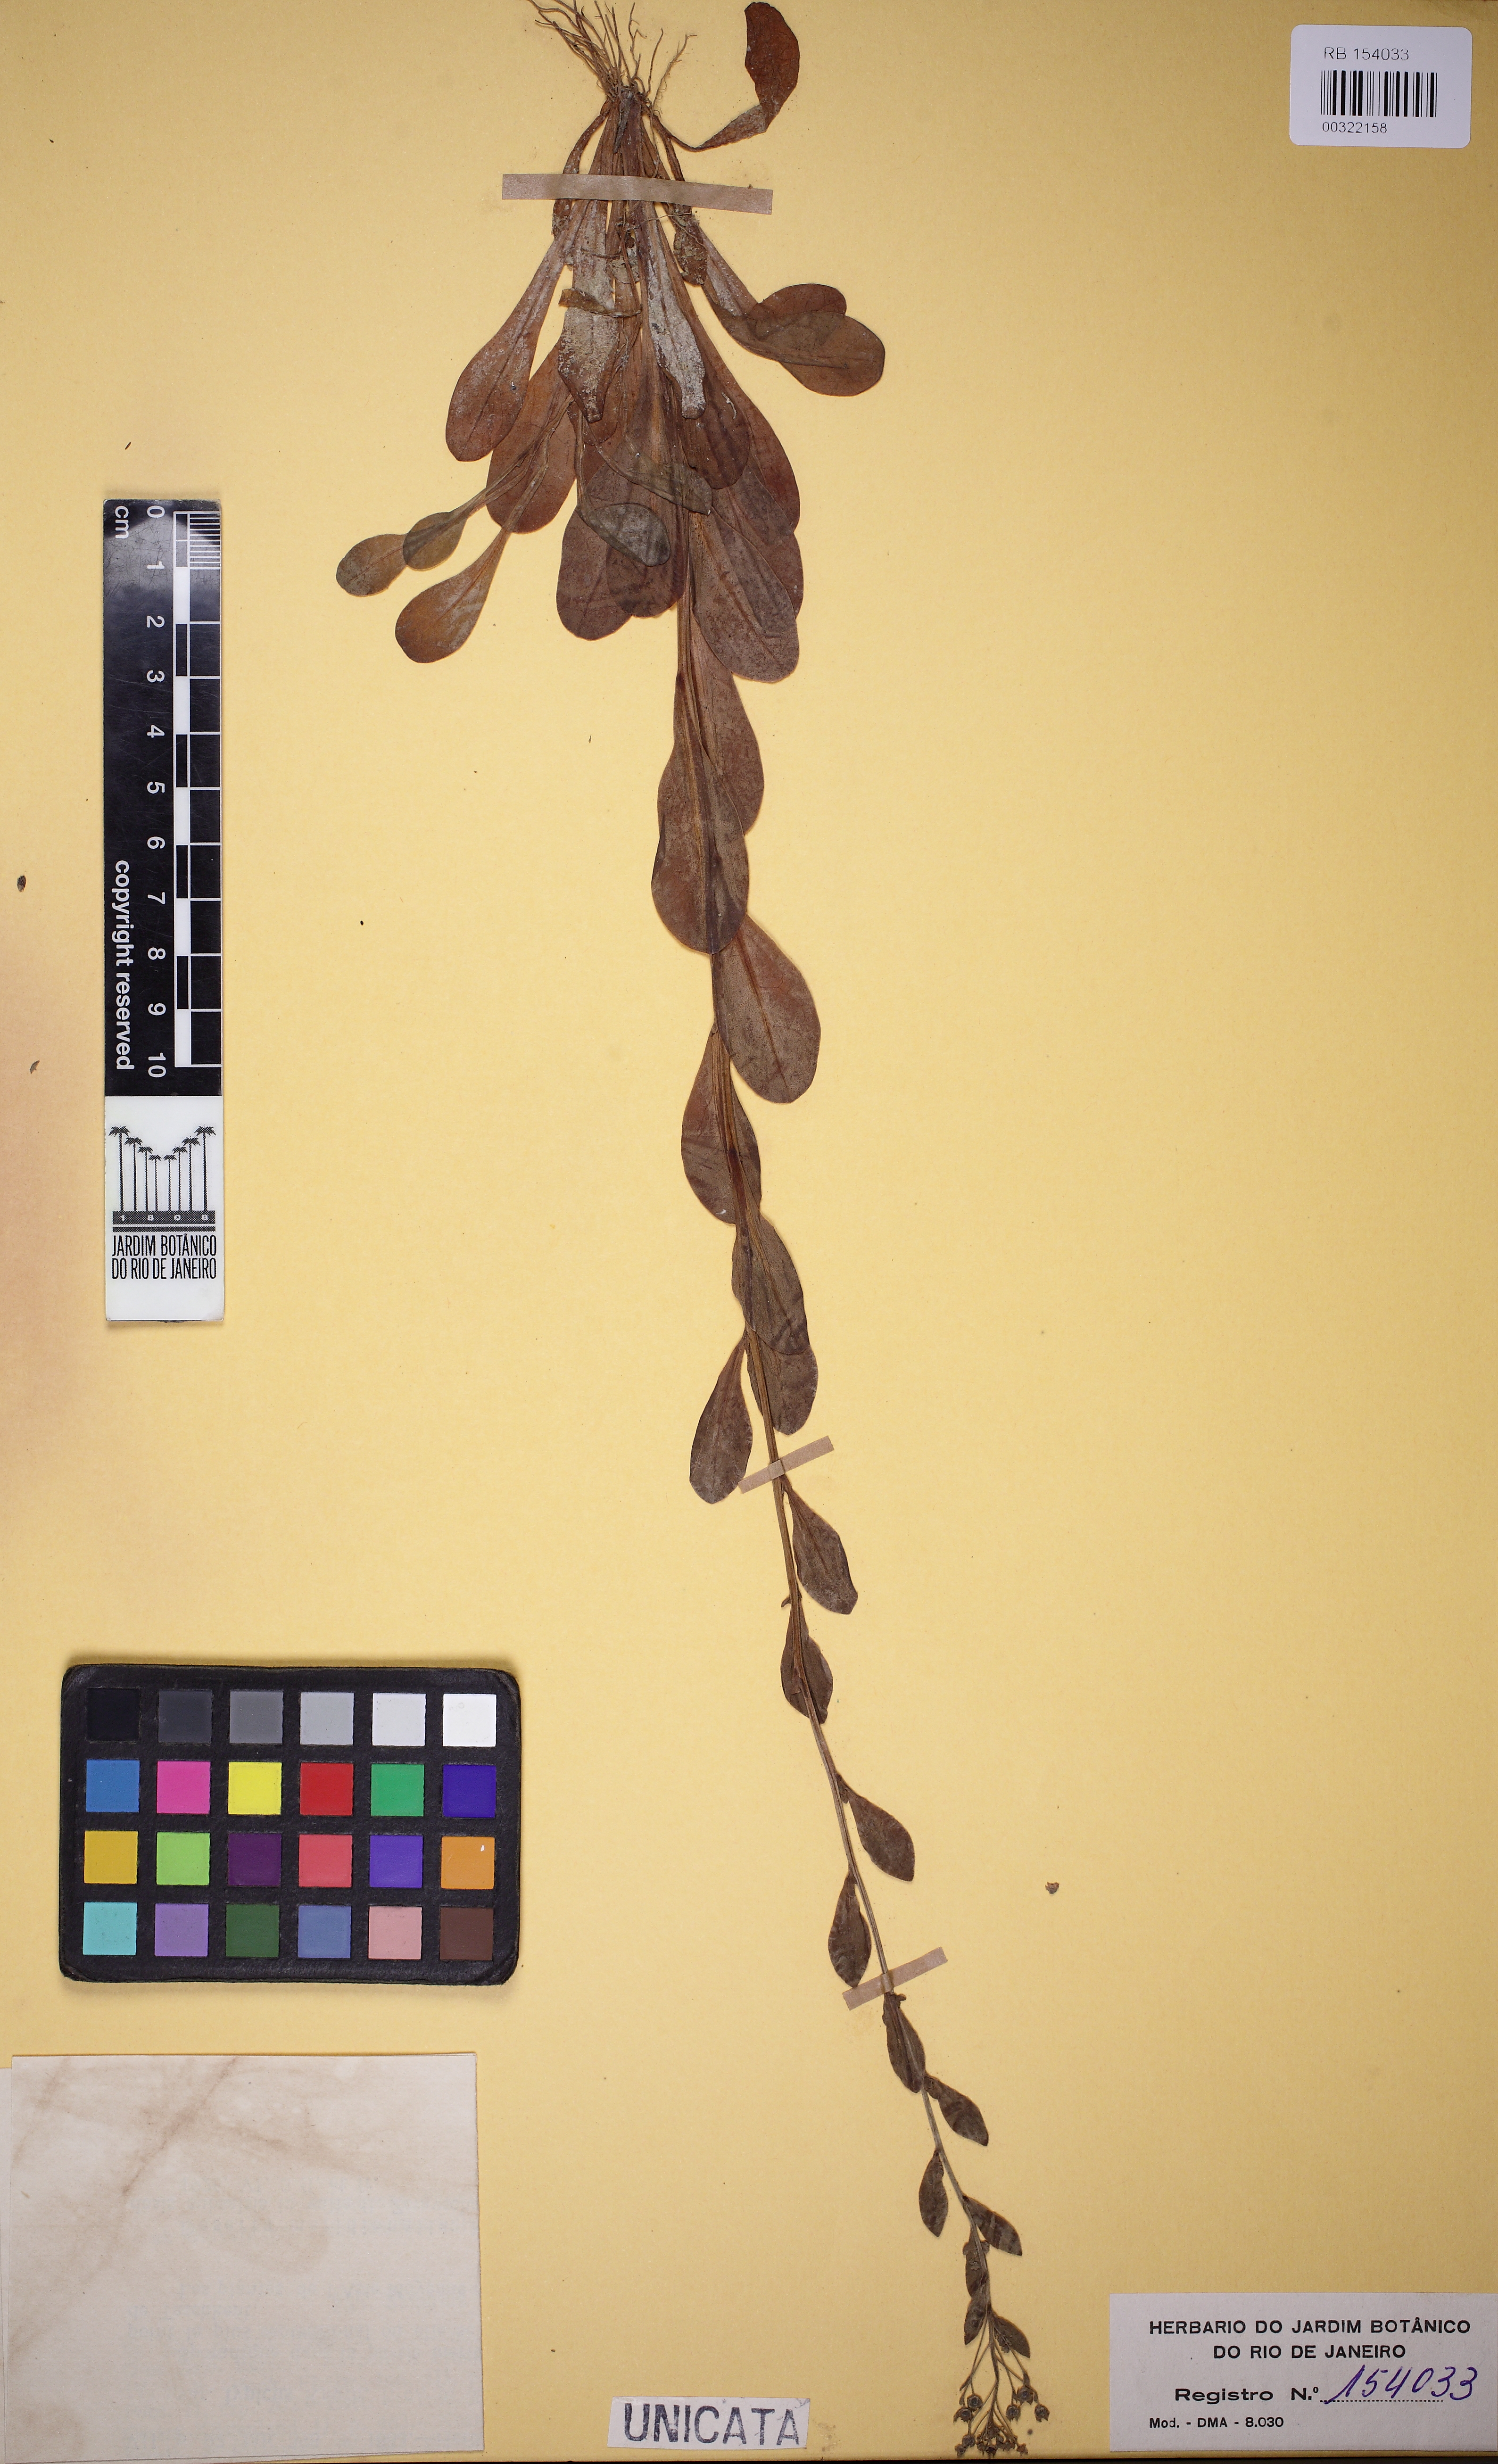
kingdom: Plantae
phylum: Tracheophyta
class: Magnoliopsida
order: Ericales
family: Primulaceae
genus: Samolus
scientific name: Samolus valerandi
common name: Brookweed
